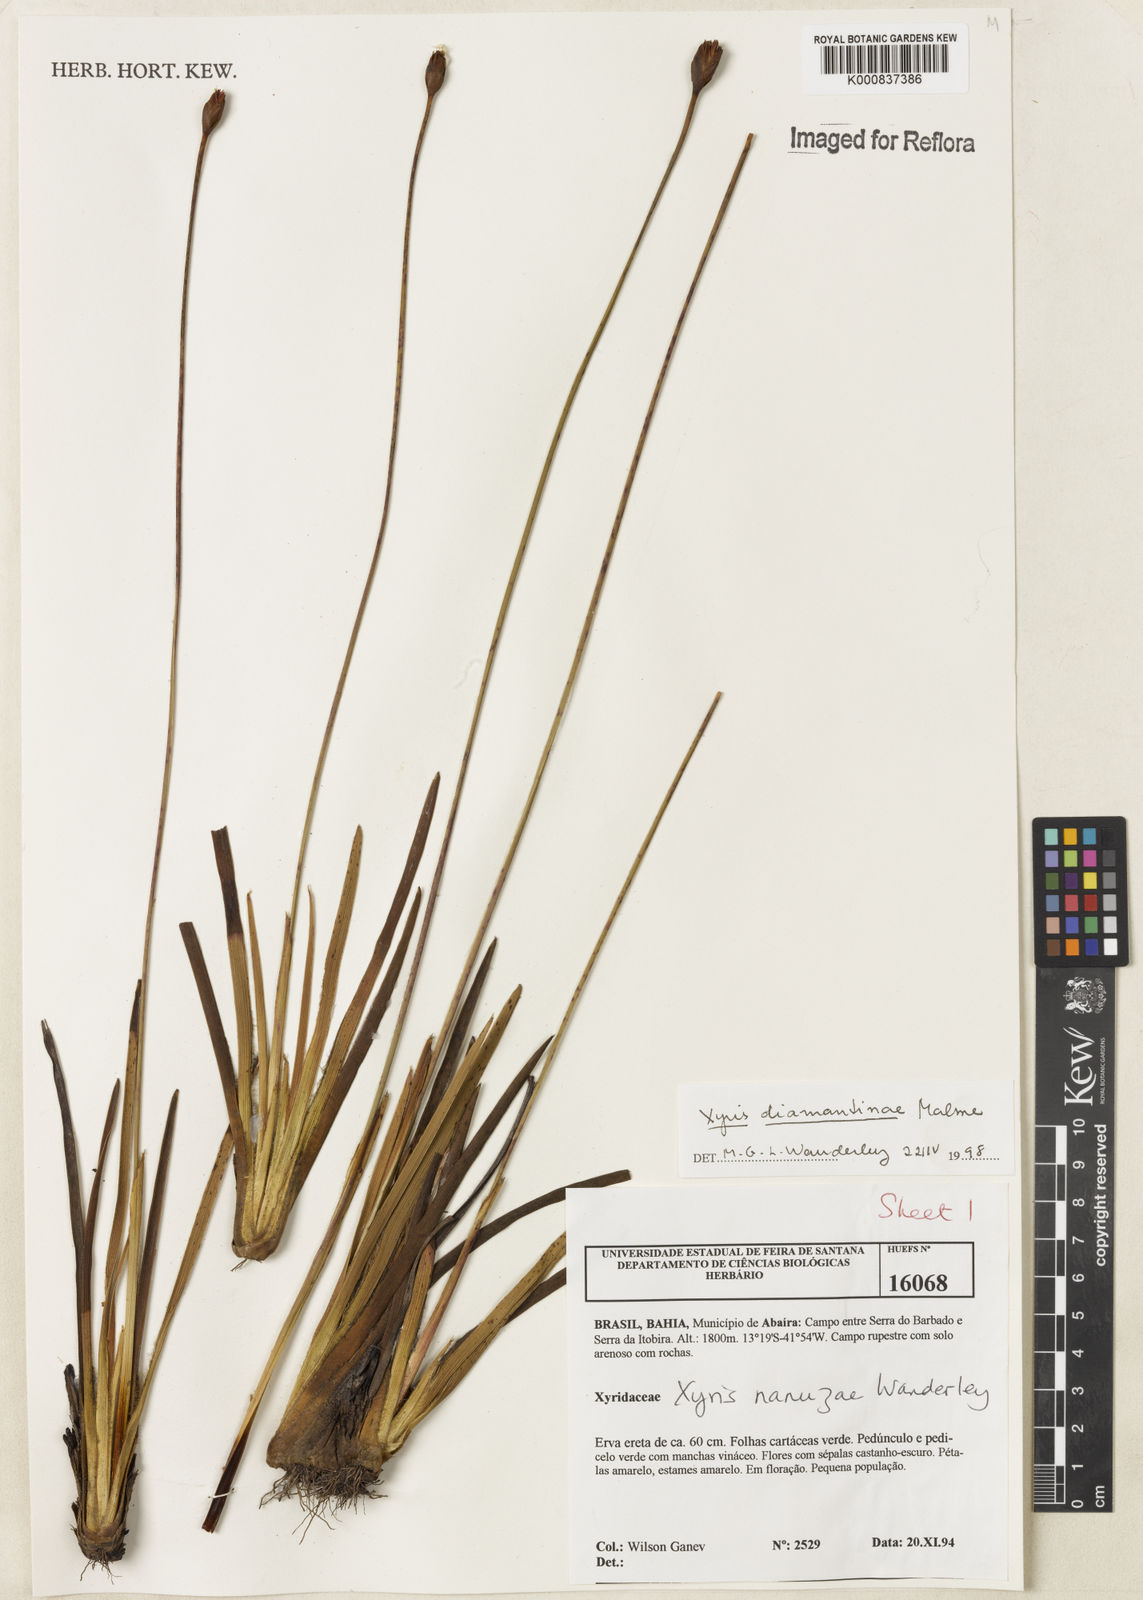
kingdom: Plantae
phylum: Tracheophyta
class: Liliopsida
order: Poales
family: Xyridaceae
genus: Xyris
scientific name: Xyris diamantinae
